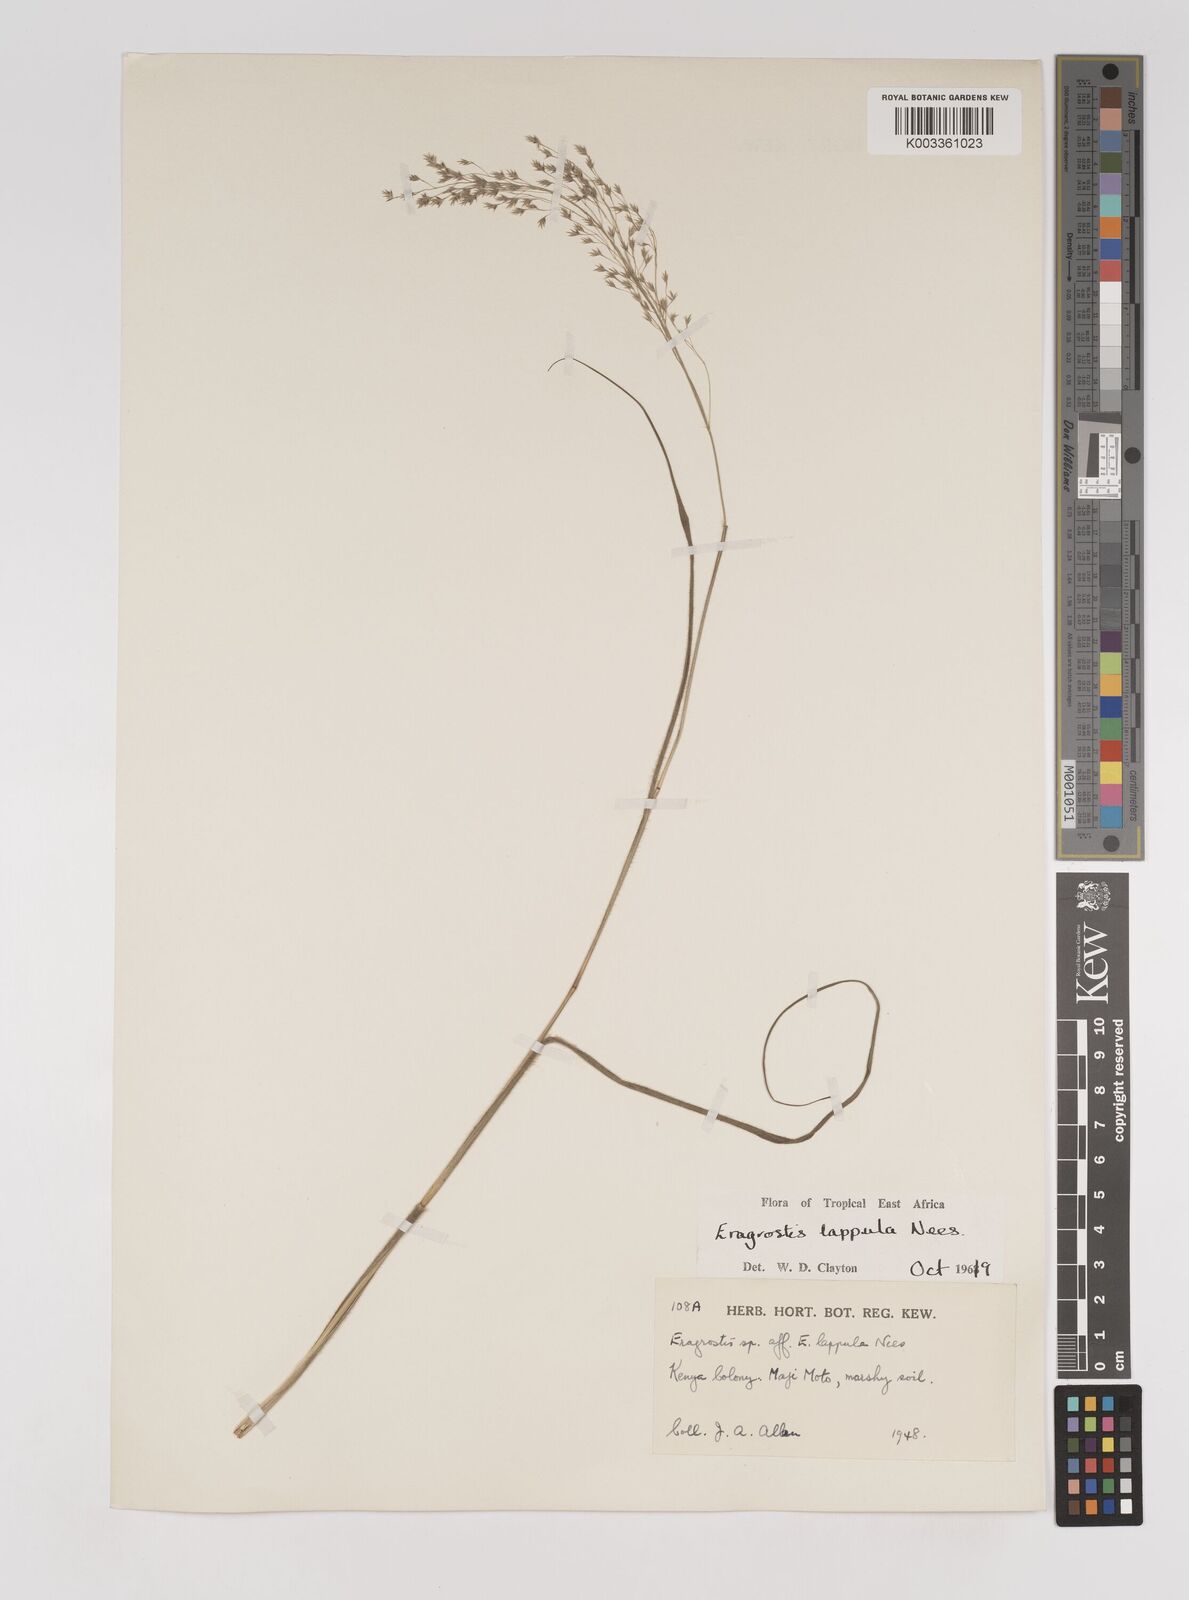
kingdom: Plantae
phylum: Tracheophyta
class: Liliopsida
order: Poales
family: Poaceae
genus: Eragrostis
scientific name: Eragrostis lappula
